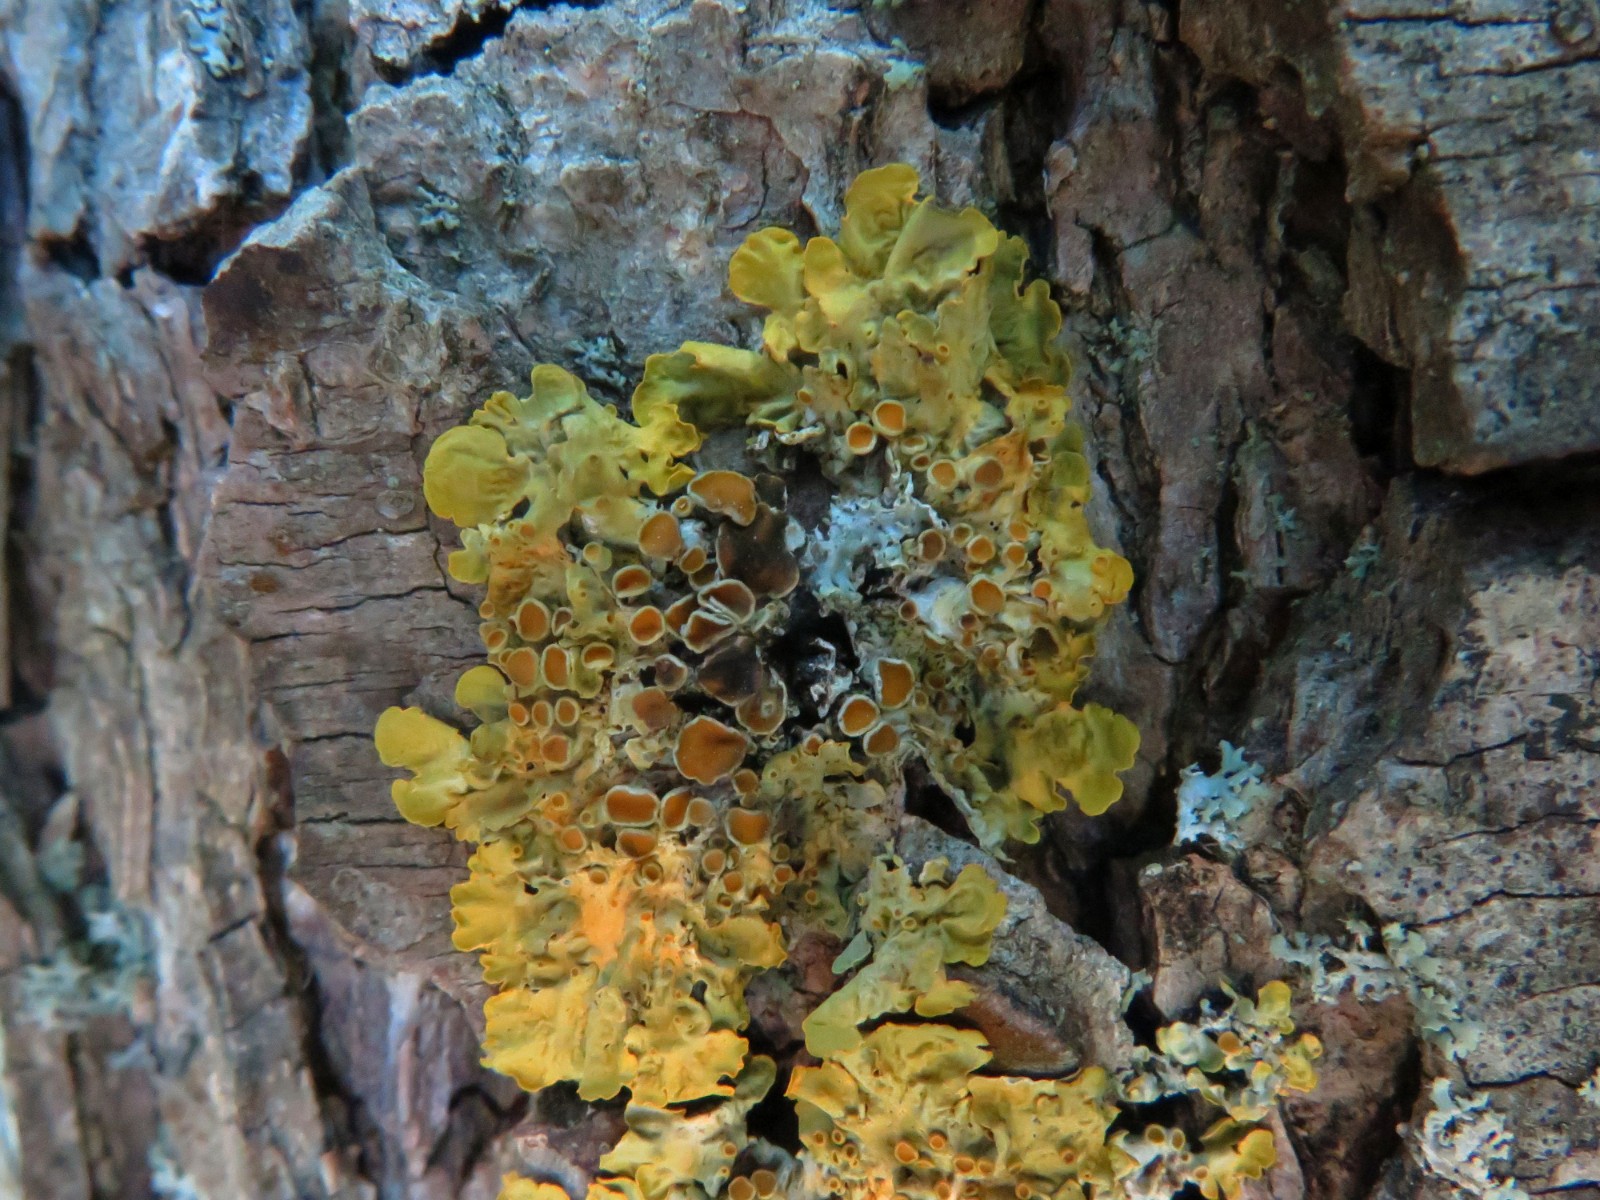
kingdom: Fungi
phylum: Ascomycota
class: Dothideomycetes
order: Mycosphaerellales
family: Teratosphaeriaceae
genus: Xanthoriicola
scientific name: Xanthoriicola physciae
